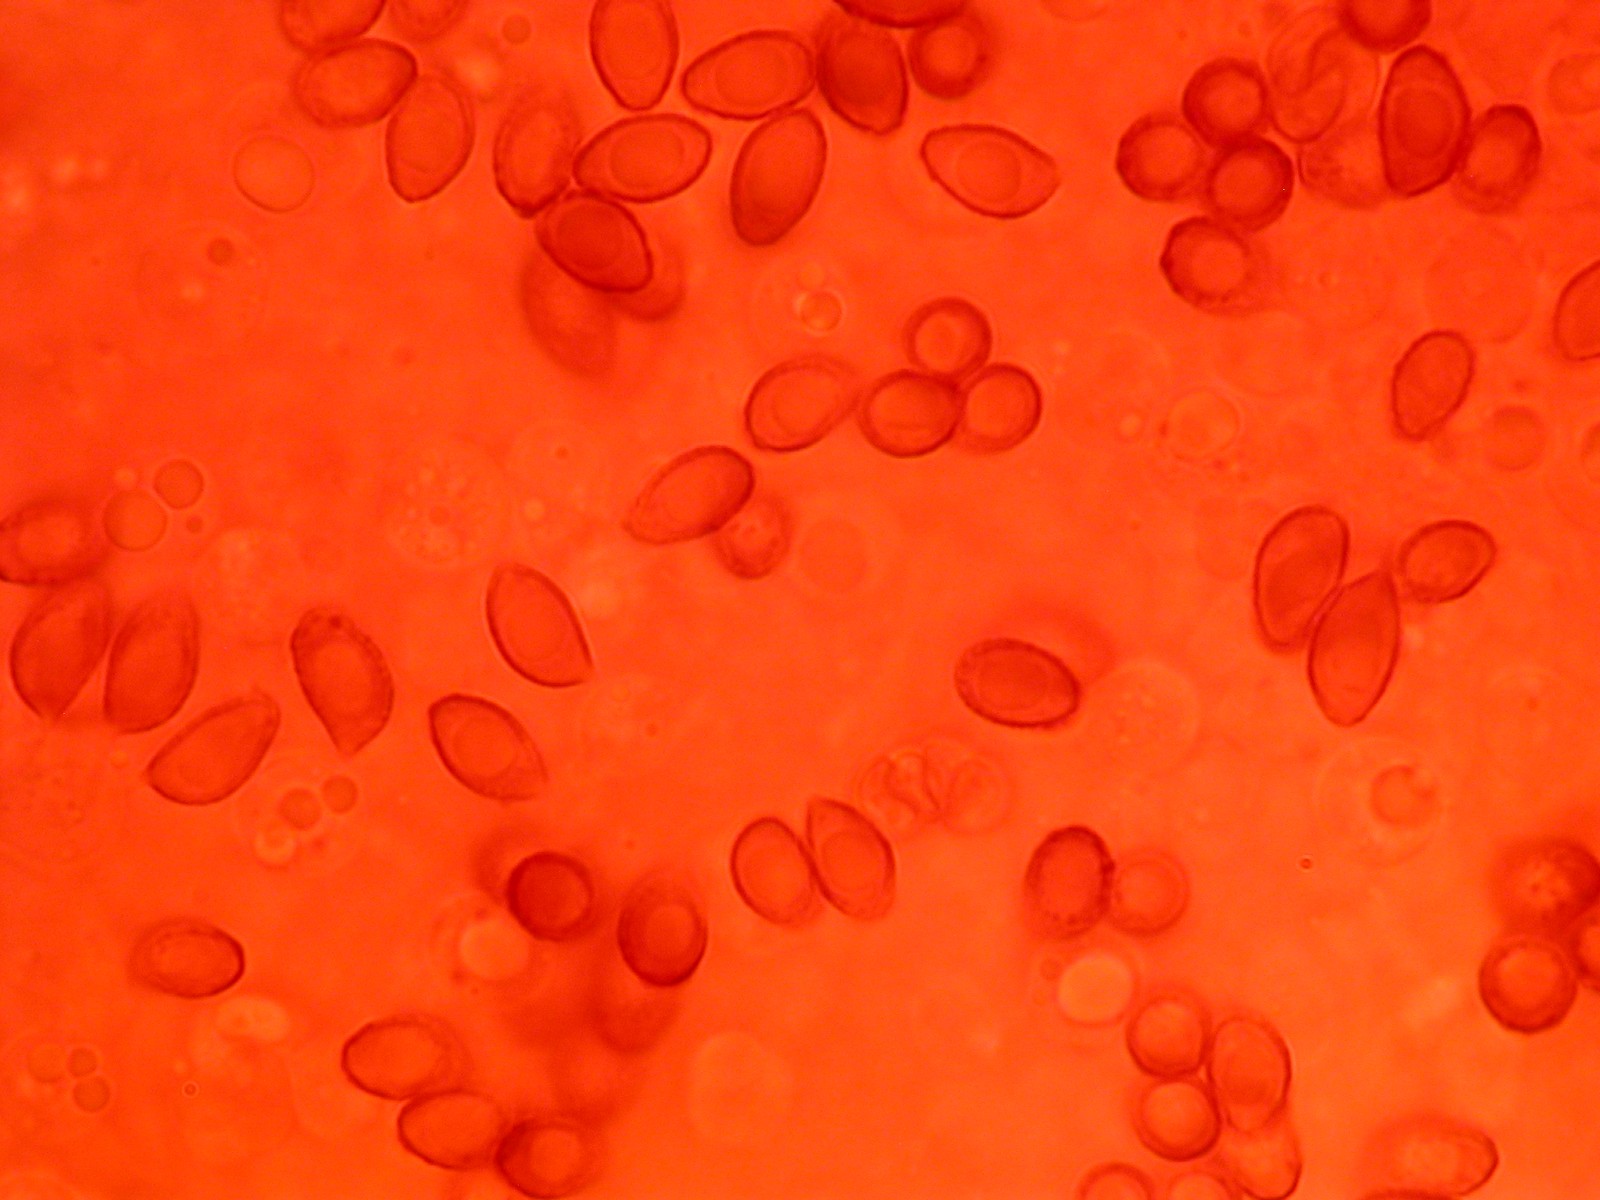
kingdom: Fungi
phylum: Basidiomycota
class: Agaricomycetes
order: Agaricales
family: Cortinariaceae
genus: Cortinarius
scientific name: Cortinarius ultrodistortus
